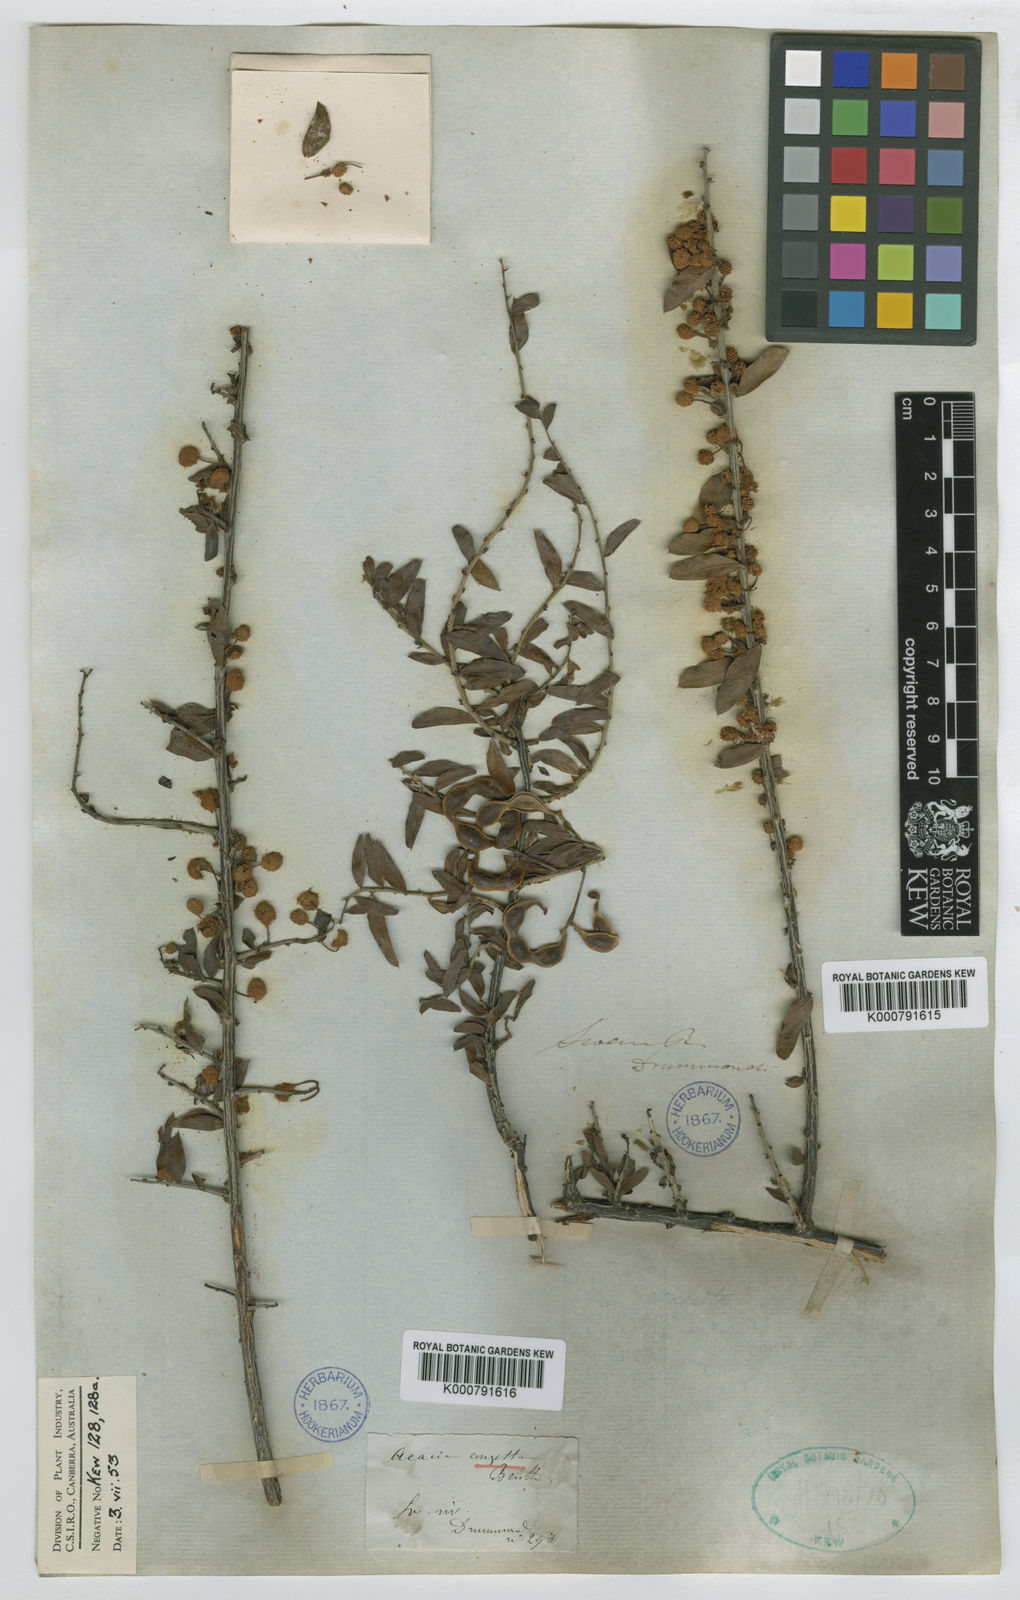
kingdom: Plantae
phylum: Tracheophyta
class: Magnoliopsida
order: Fabales
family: Fabaceae
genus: Acacia
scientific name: Acacia congesta
